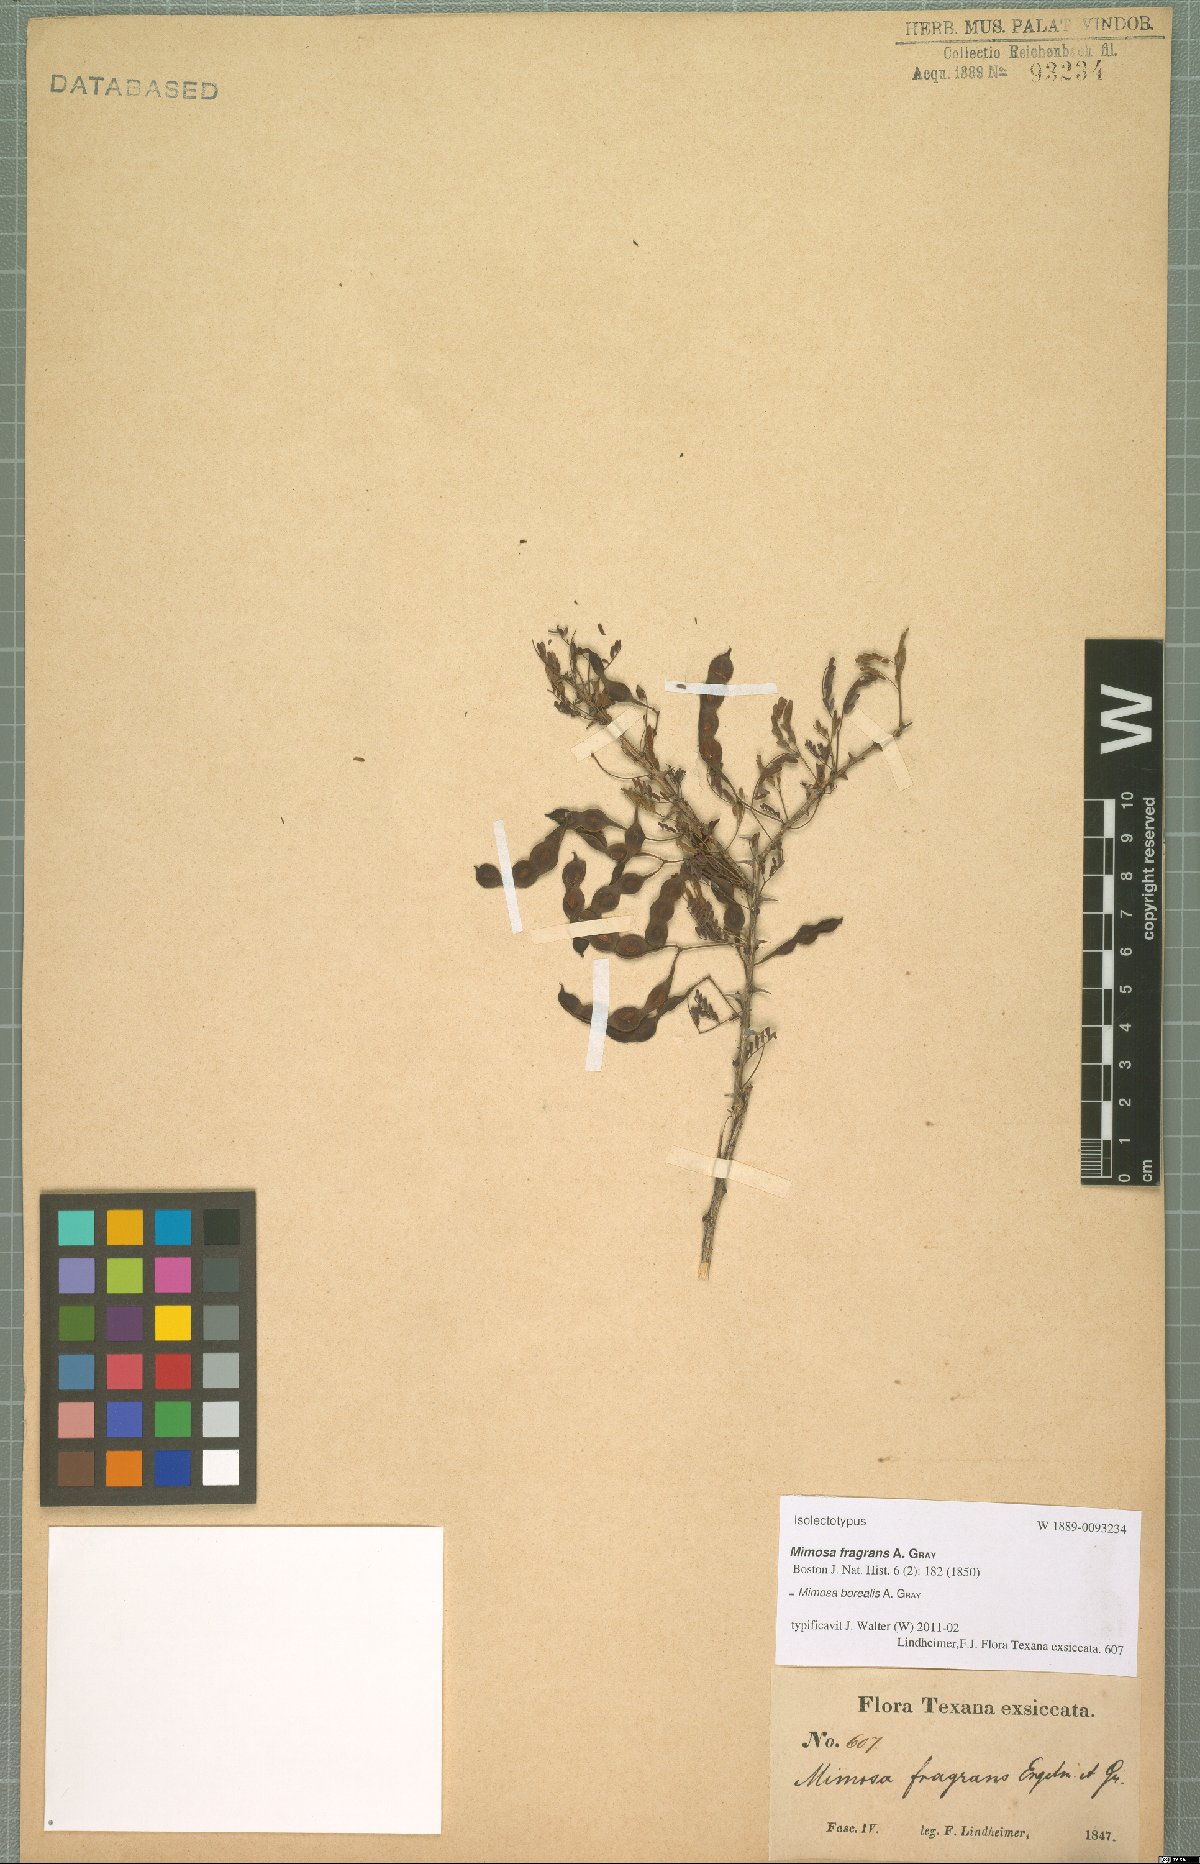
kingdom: Plantae
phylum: Tracheophyta
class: Magnoliopsida
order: Fabales
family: Fabaceae
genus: Mimosa
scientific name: Mimosa borealis
